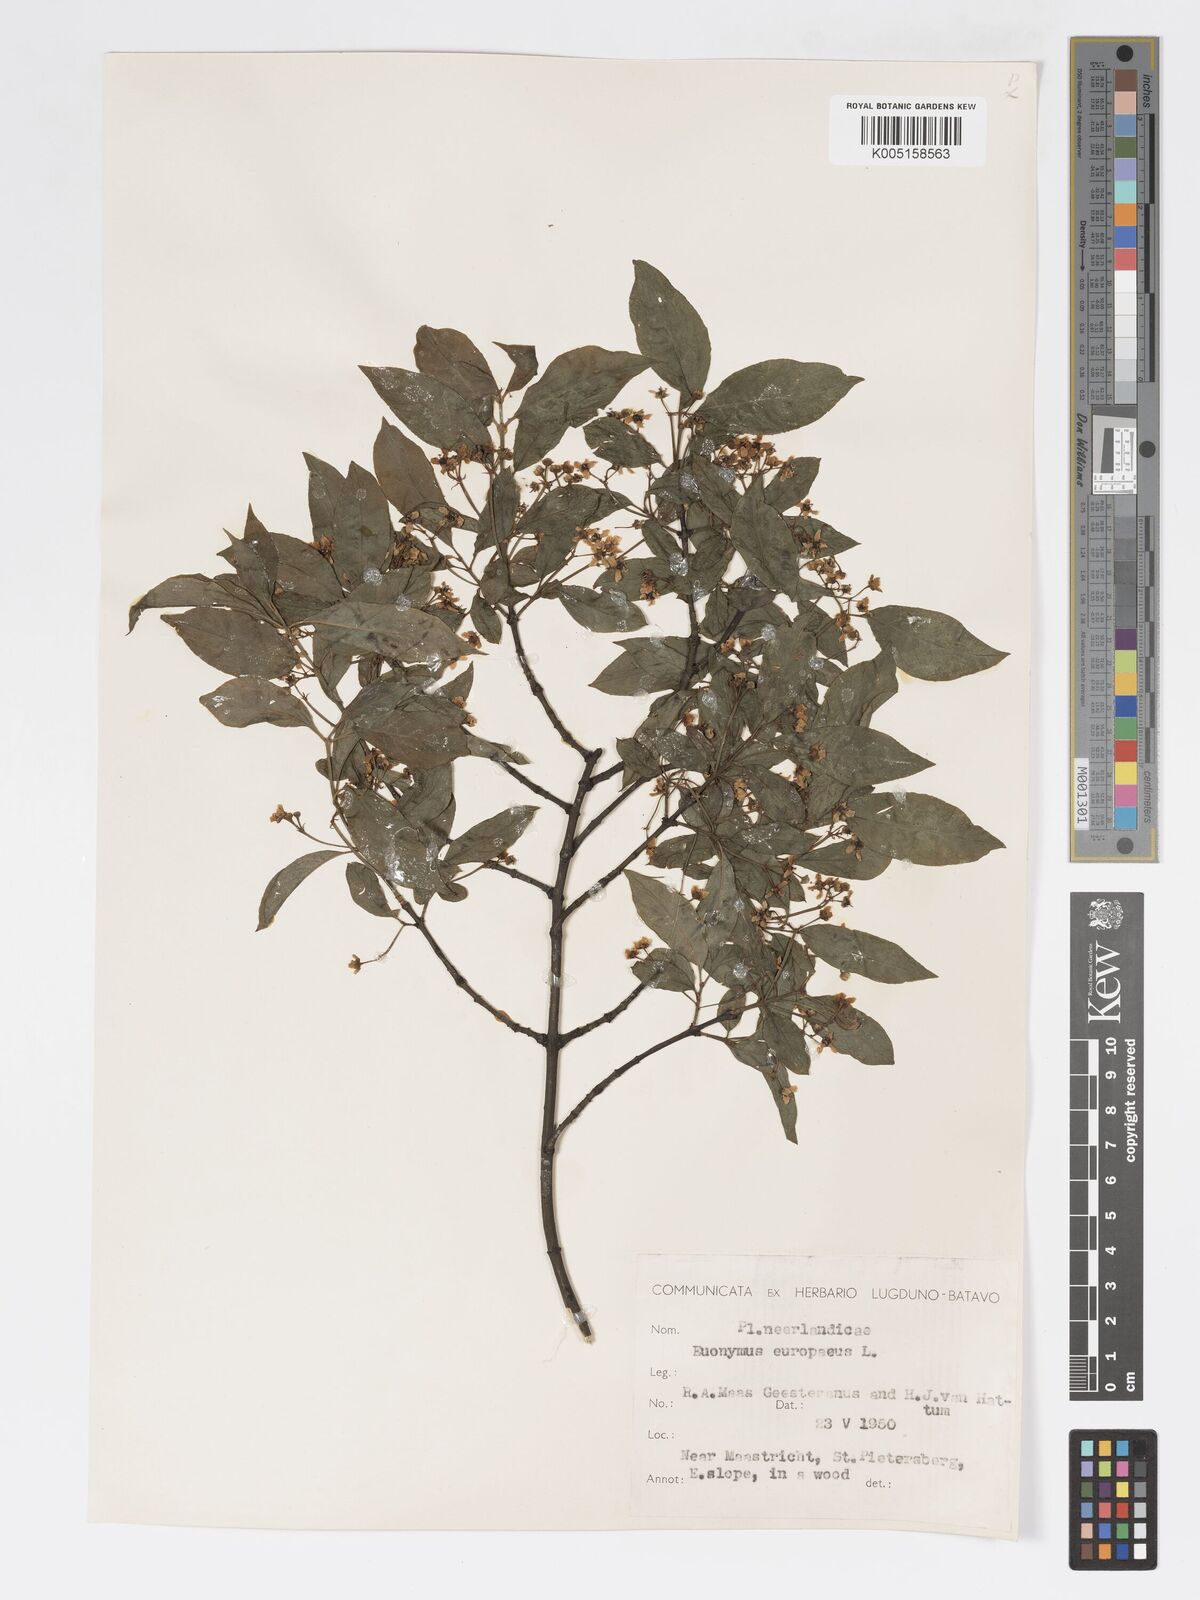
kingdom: Plantae
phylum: Tracheophyta
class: Magnoliopsida
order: Celastrales
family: Celastraceae
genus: Euonymus
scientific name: Euonymus europaeus
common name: Spindle
